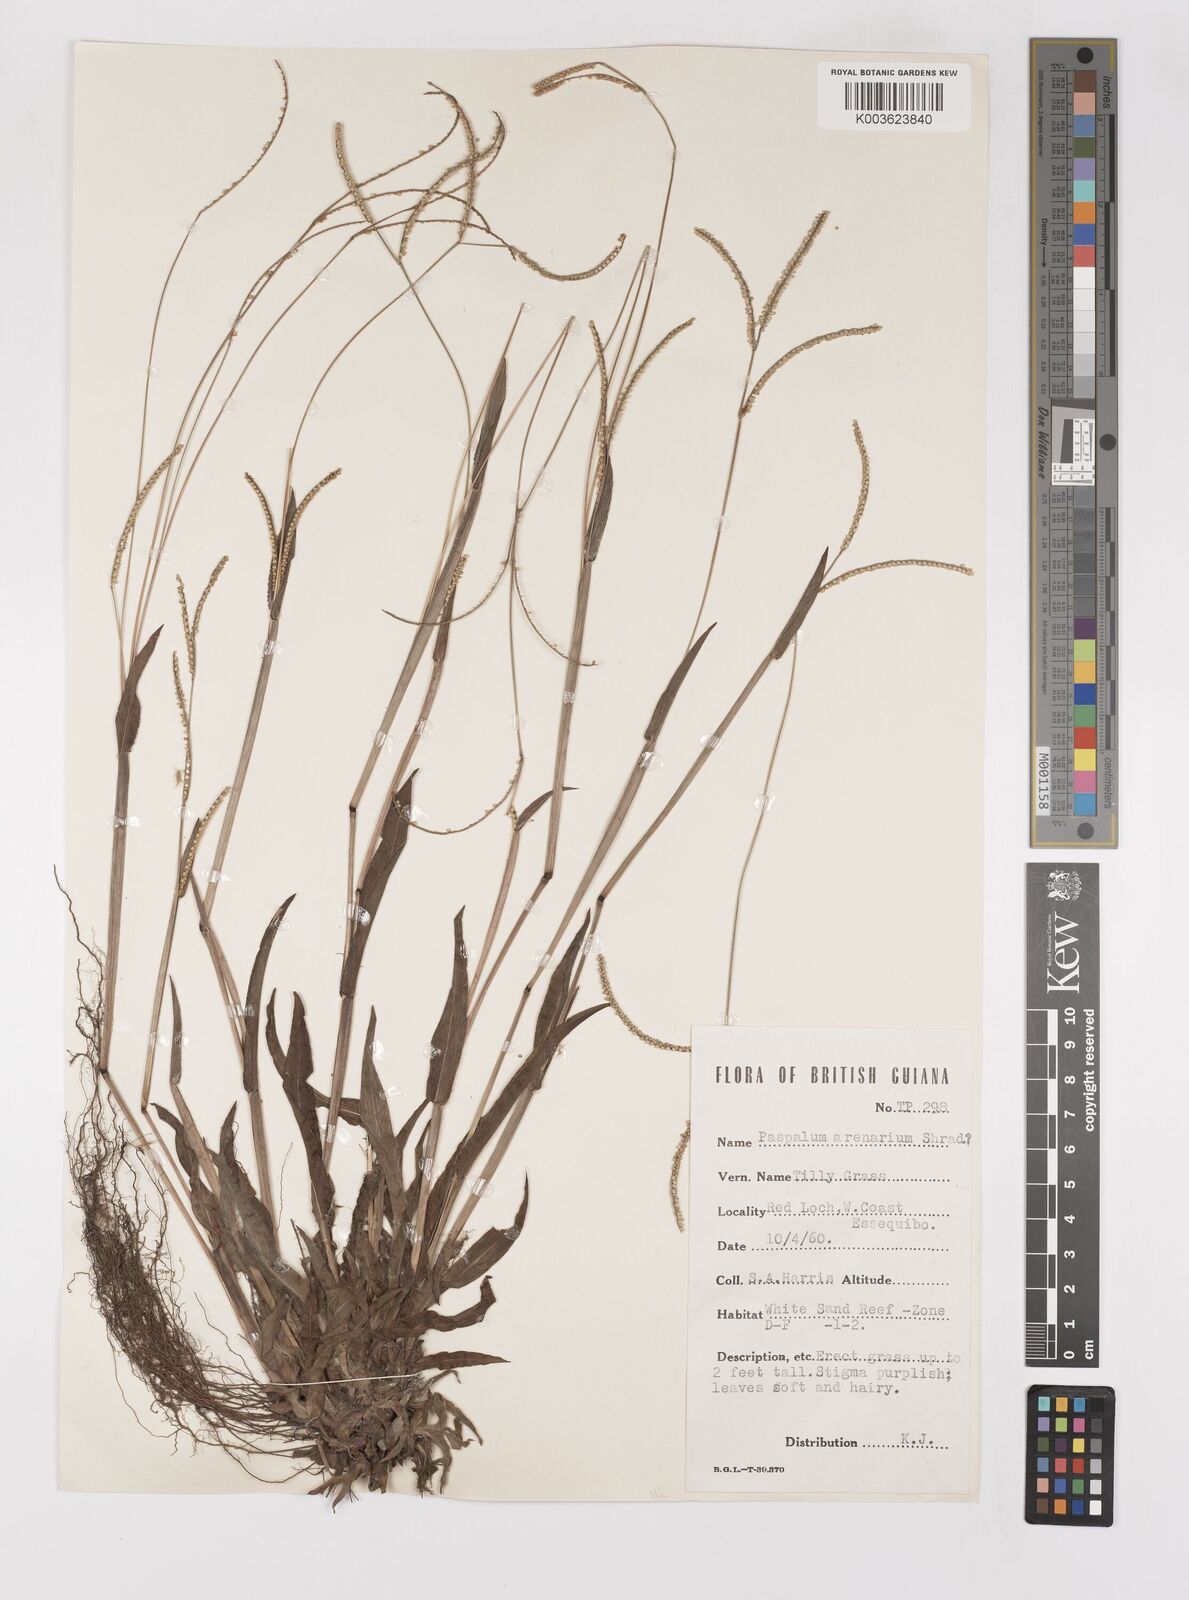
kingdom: Plantae
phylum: Tracheophyta
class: Liliopsida
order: Poales
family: Poaceae
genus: Paspalum
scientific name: Paspalum arenarium
